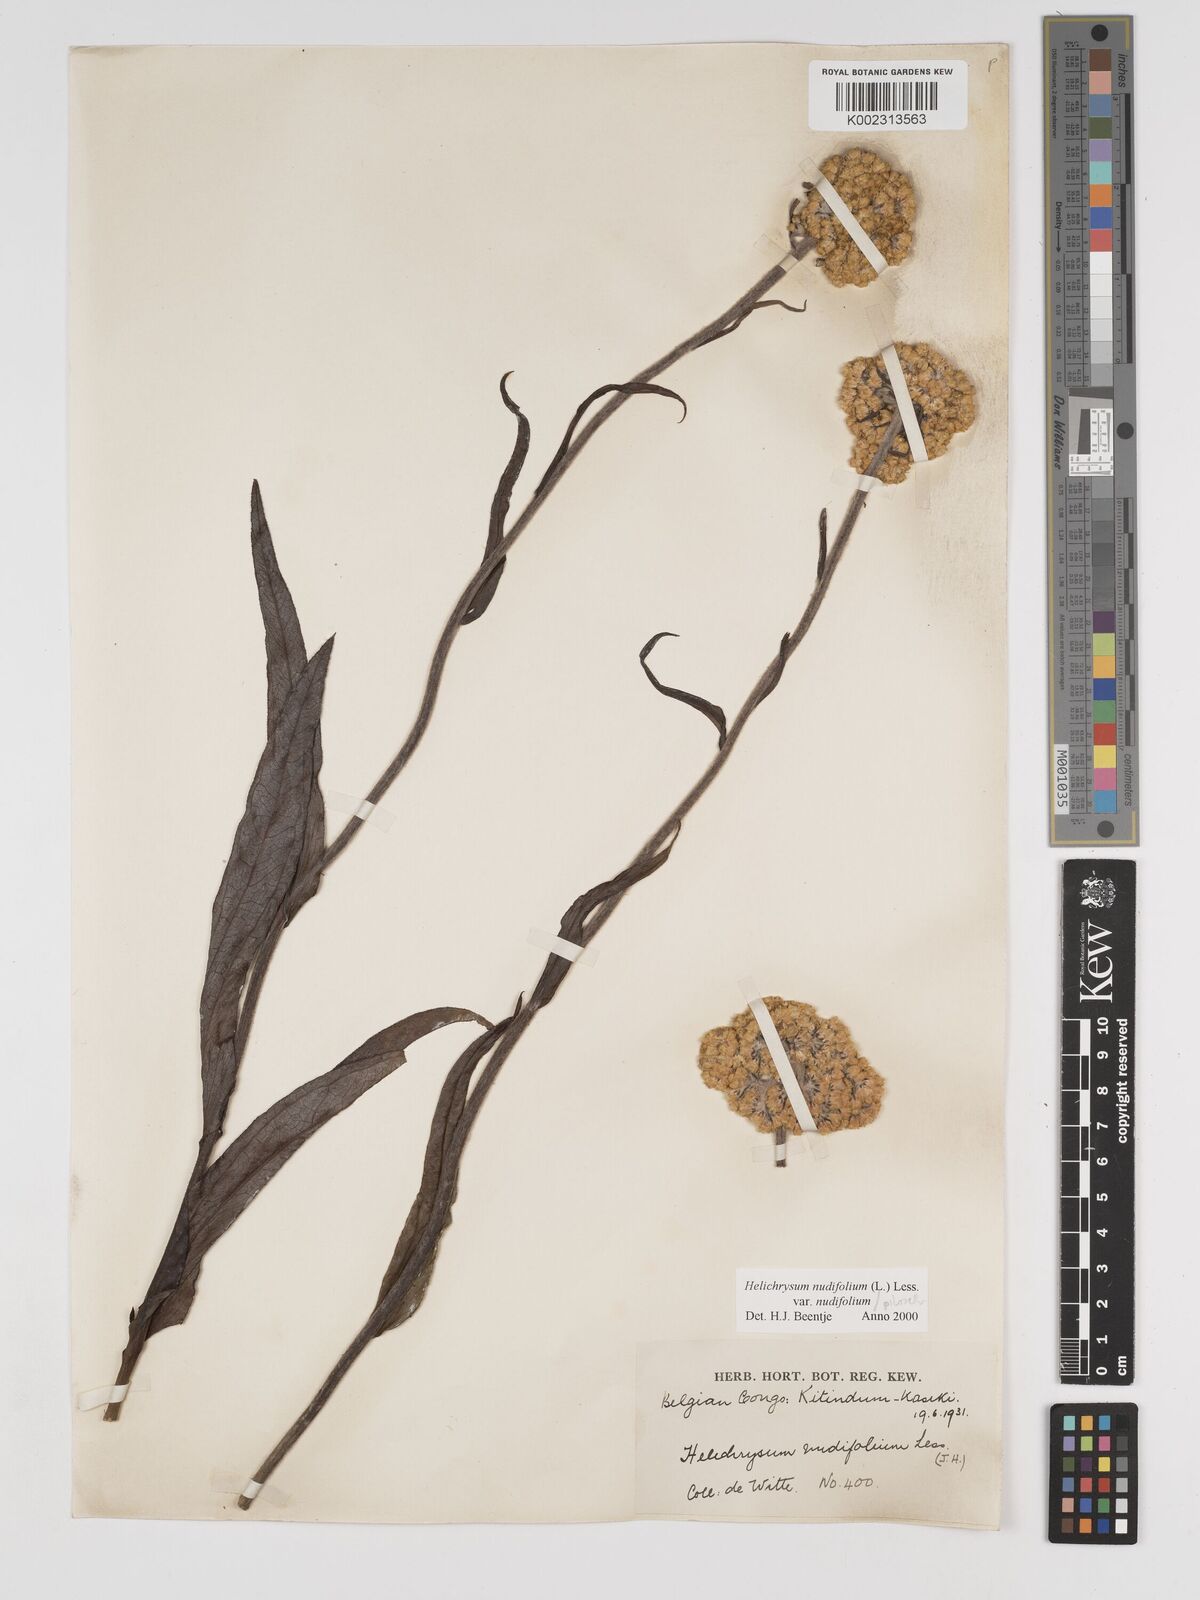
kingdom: Plantae
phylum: Tracheophyta
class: Magnoliopsida
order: Asterales
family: Asteraceae
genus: Helichrysum
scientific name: Helichrysum nudifolium
